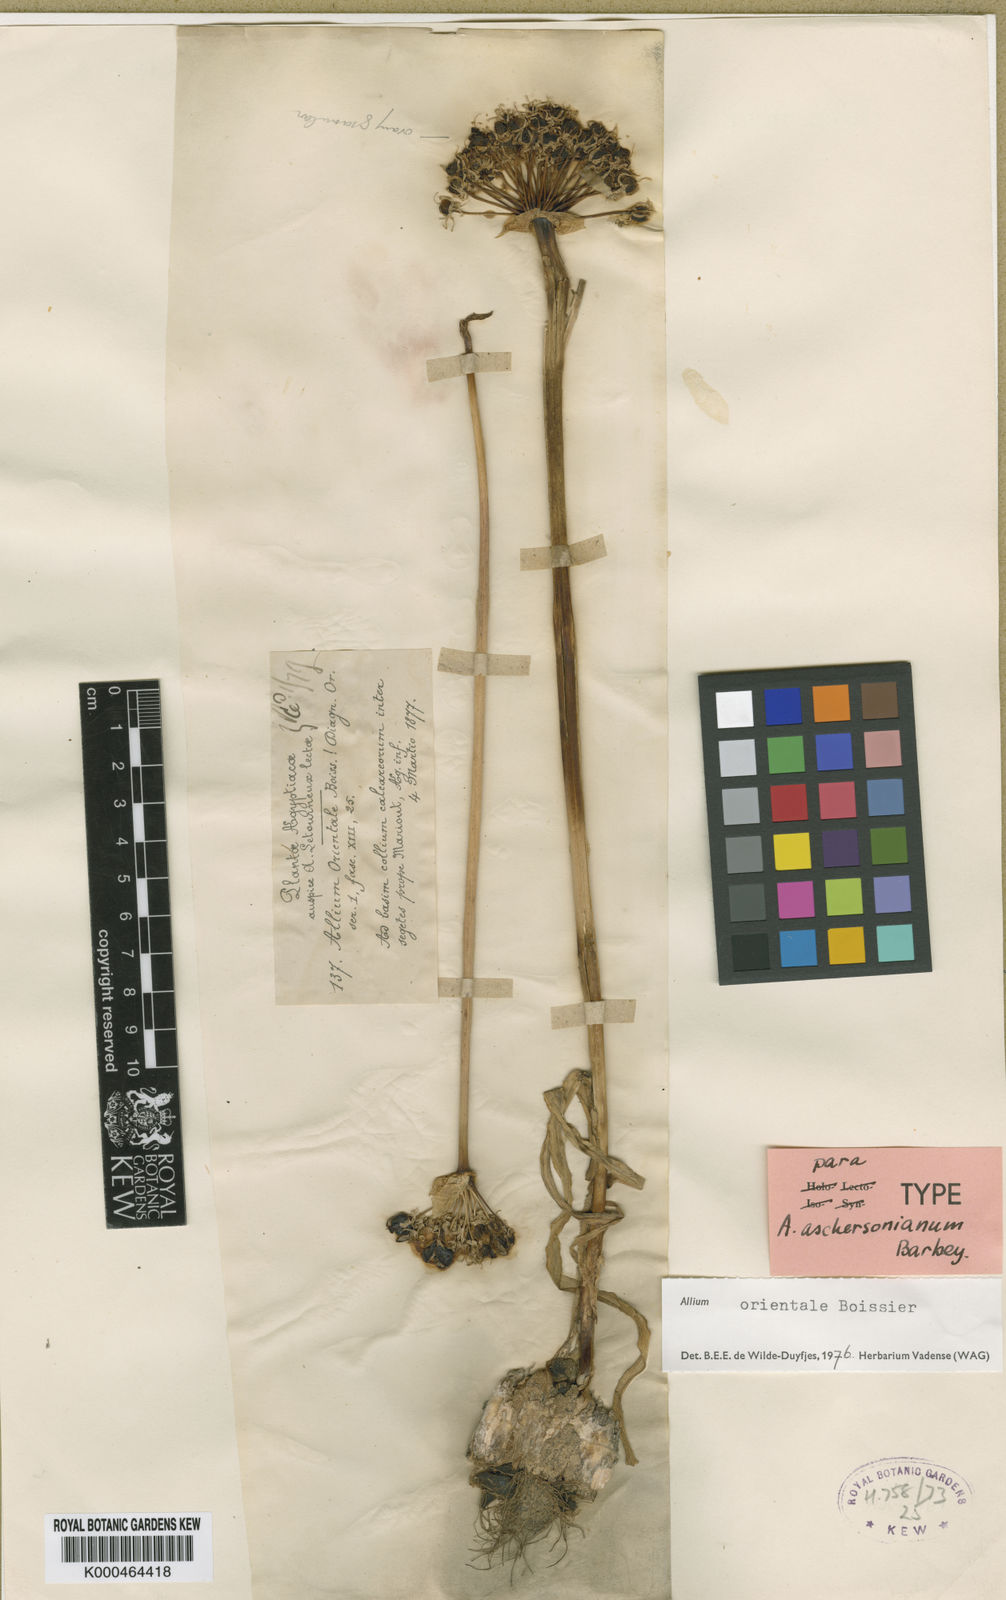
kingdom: Plantae
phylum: Tracheophyta
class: Liliopsida
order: Asparagales
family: Amaryllidaceae
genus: Allium
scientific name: Allium aschersonianum
